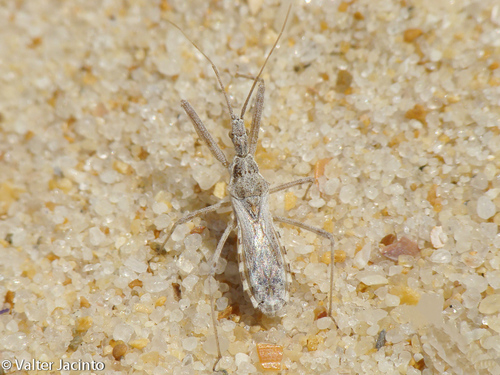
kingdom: Animalia
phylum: Arthropoda
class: Insecta
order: Hemiptera
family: Reduviidae
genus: Vachiria
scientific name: Vachiria natolica
